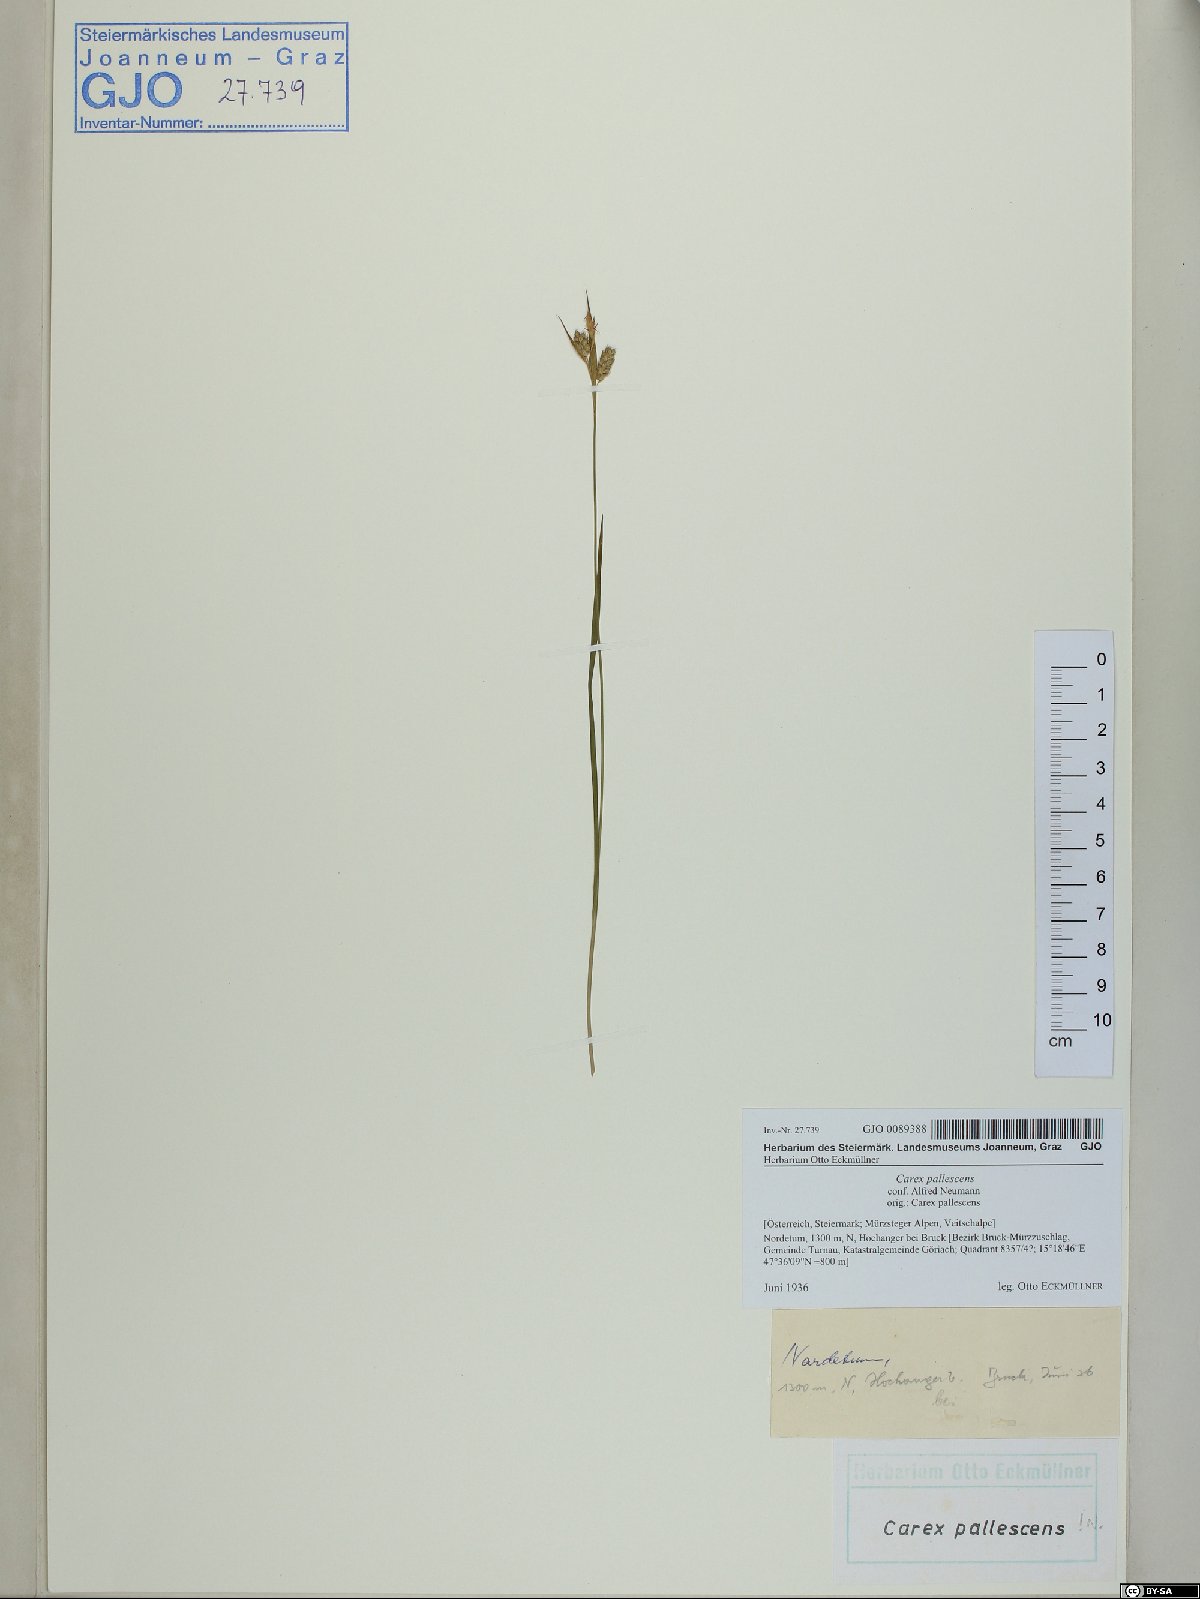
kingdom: Plantae
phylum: Tracheophyta
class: Liliopsida
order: Poales
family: Cyperaceae
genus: Carex
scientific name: Carex pallescens
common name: Pale sedge
